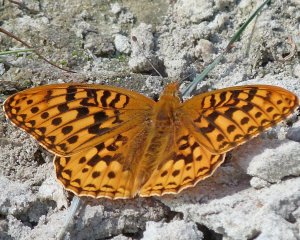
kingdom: Animalia
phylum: Arthropoda
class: Insecta
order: Lepidoptera
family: Nymphalidae
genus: Speyeria
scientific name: Speyeria zerene
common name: Zerene Fritillary
